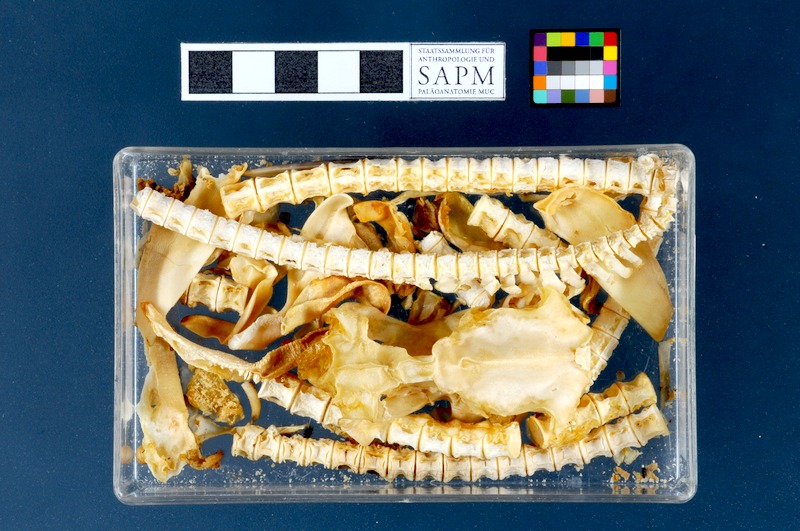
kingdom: Animalia
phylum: Chordata
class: Elasmobranchii
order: Squaliformes
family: Squalidae
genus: Squalus
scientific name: Squalus acanthias
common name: Spurdog
